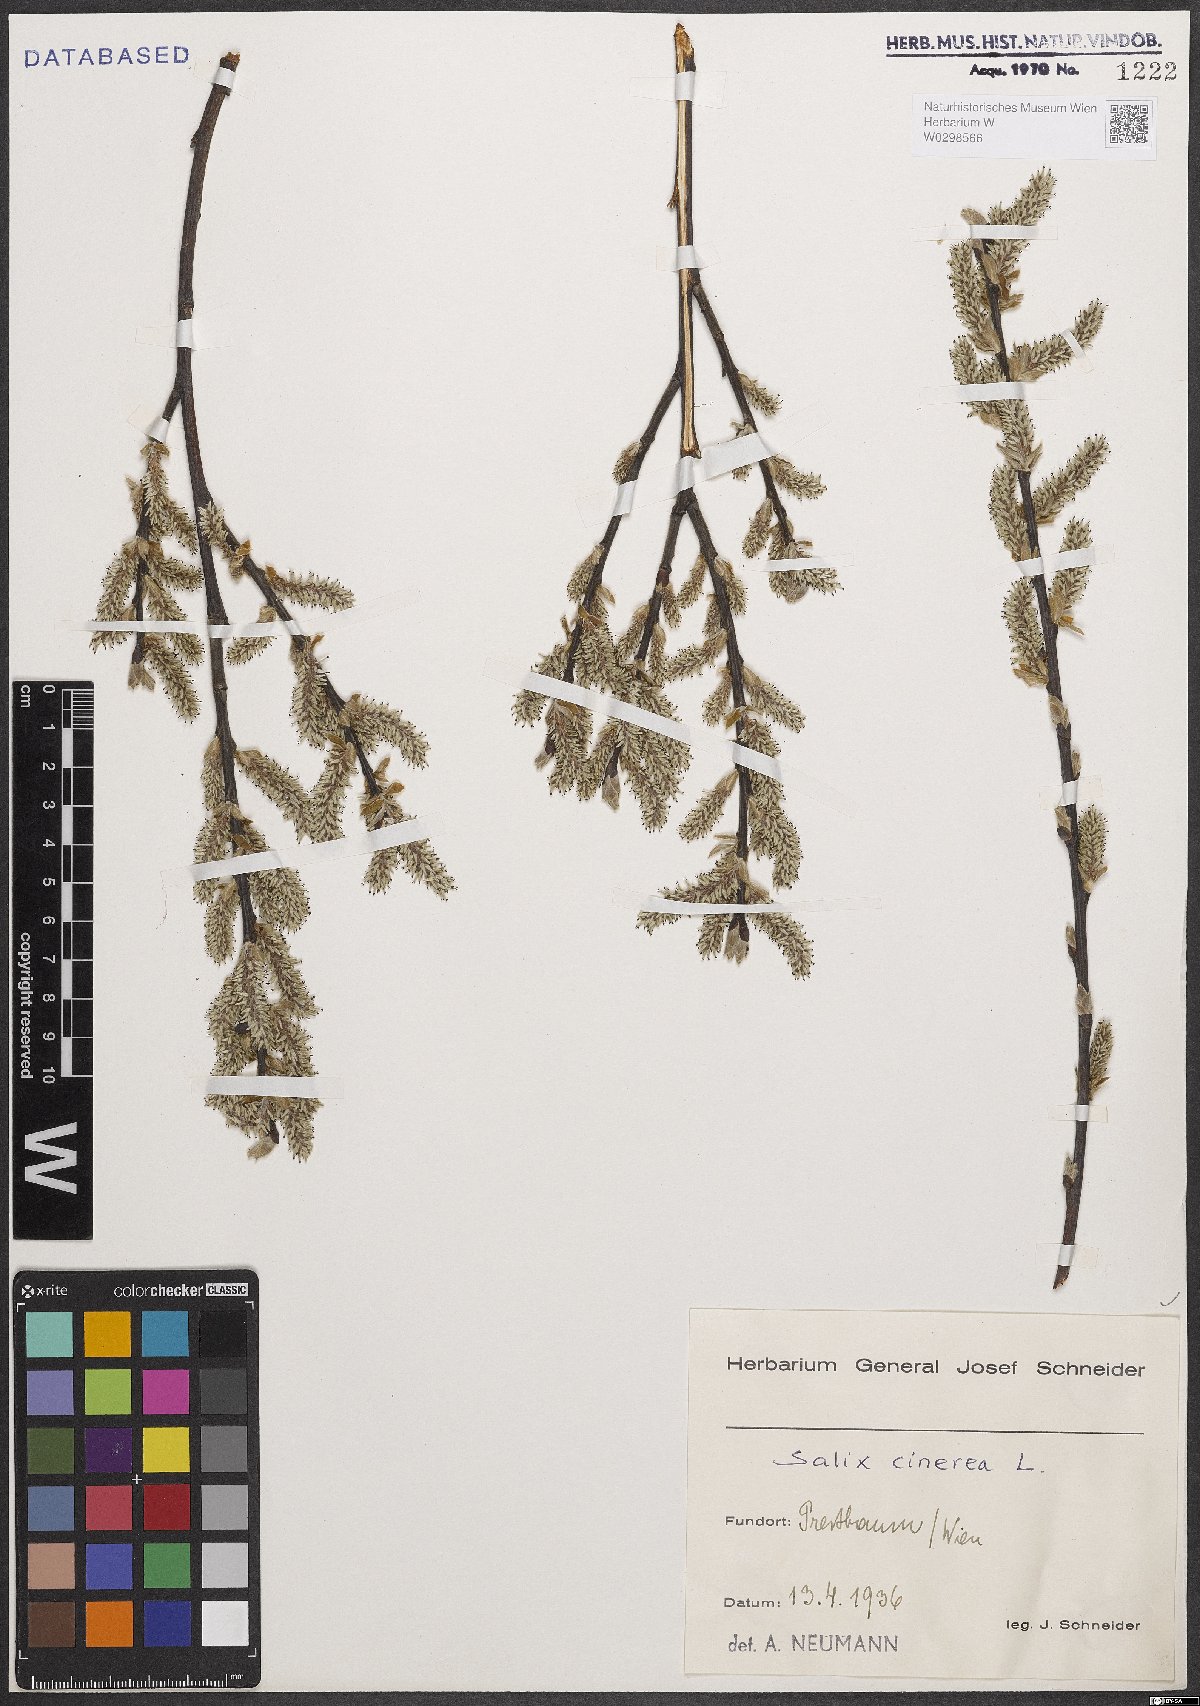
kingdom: Plantae
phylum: Tracheophyta
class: Magnoliopsida
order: Malpighiales
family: Salicaceae
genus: Salix
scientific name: Salix cinerea
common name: Common sallow
